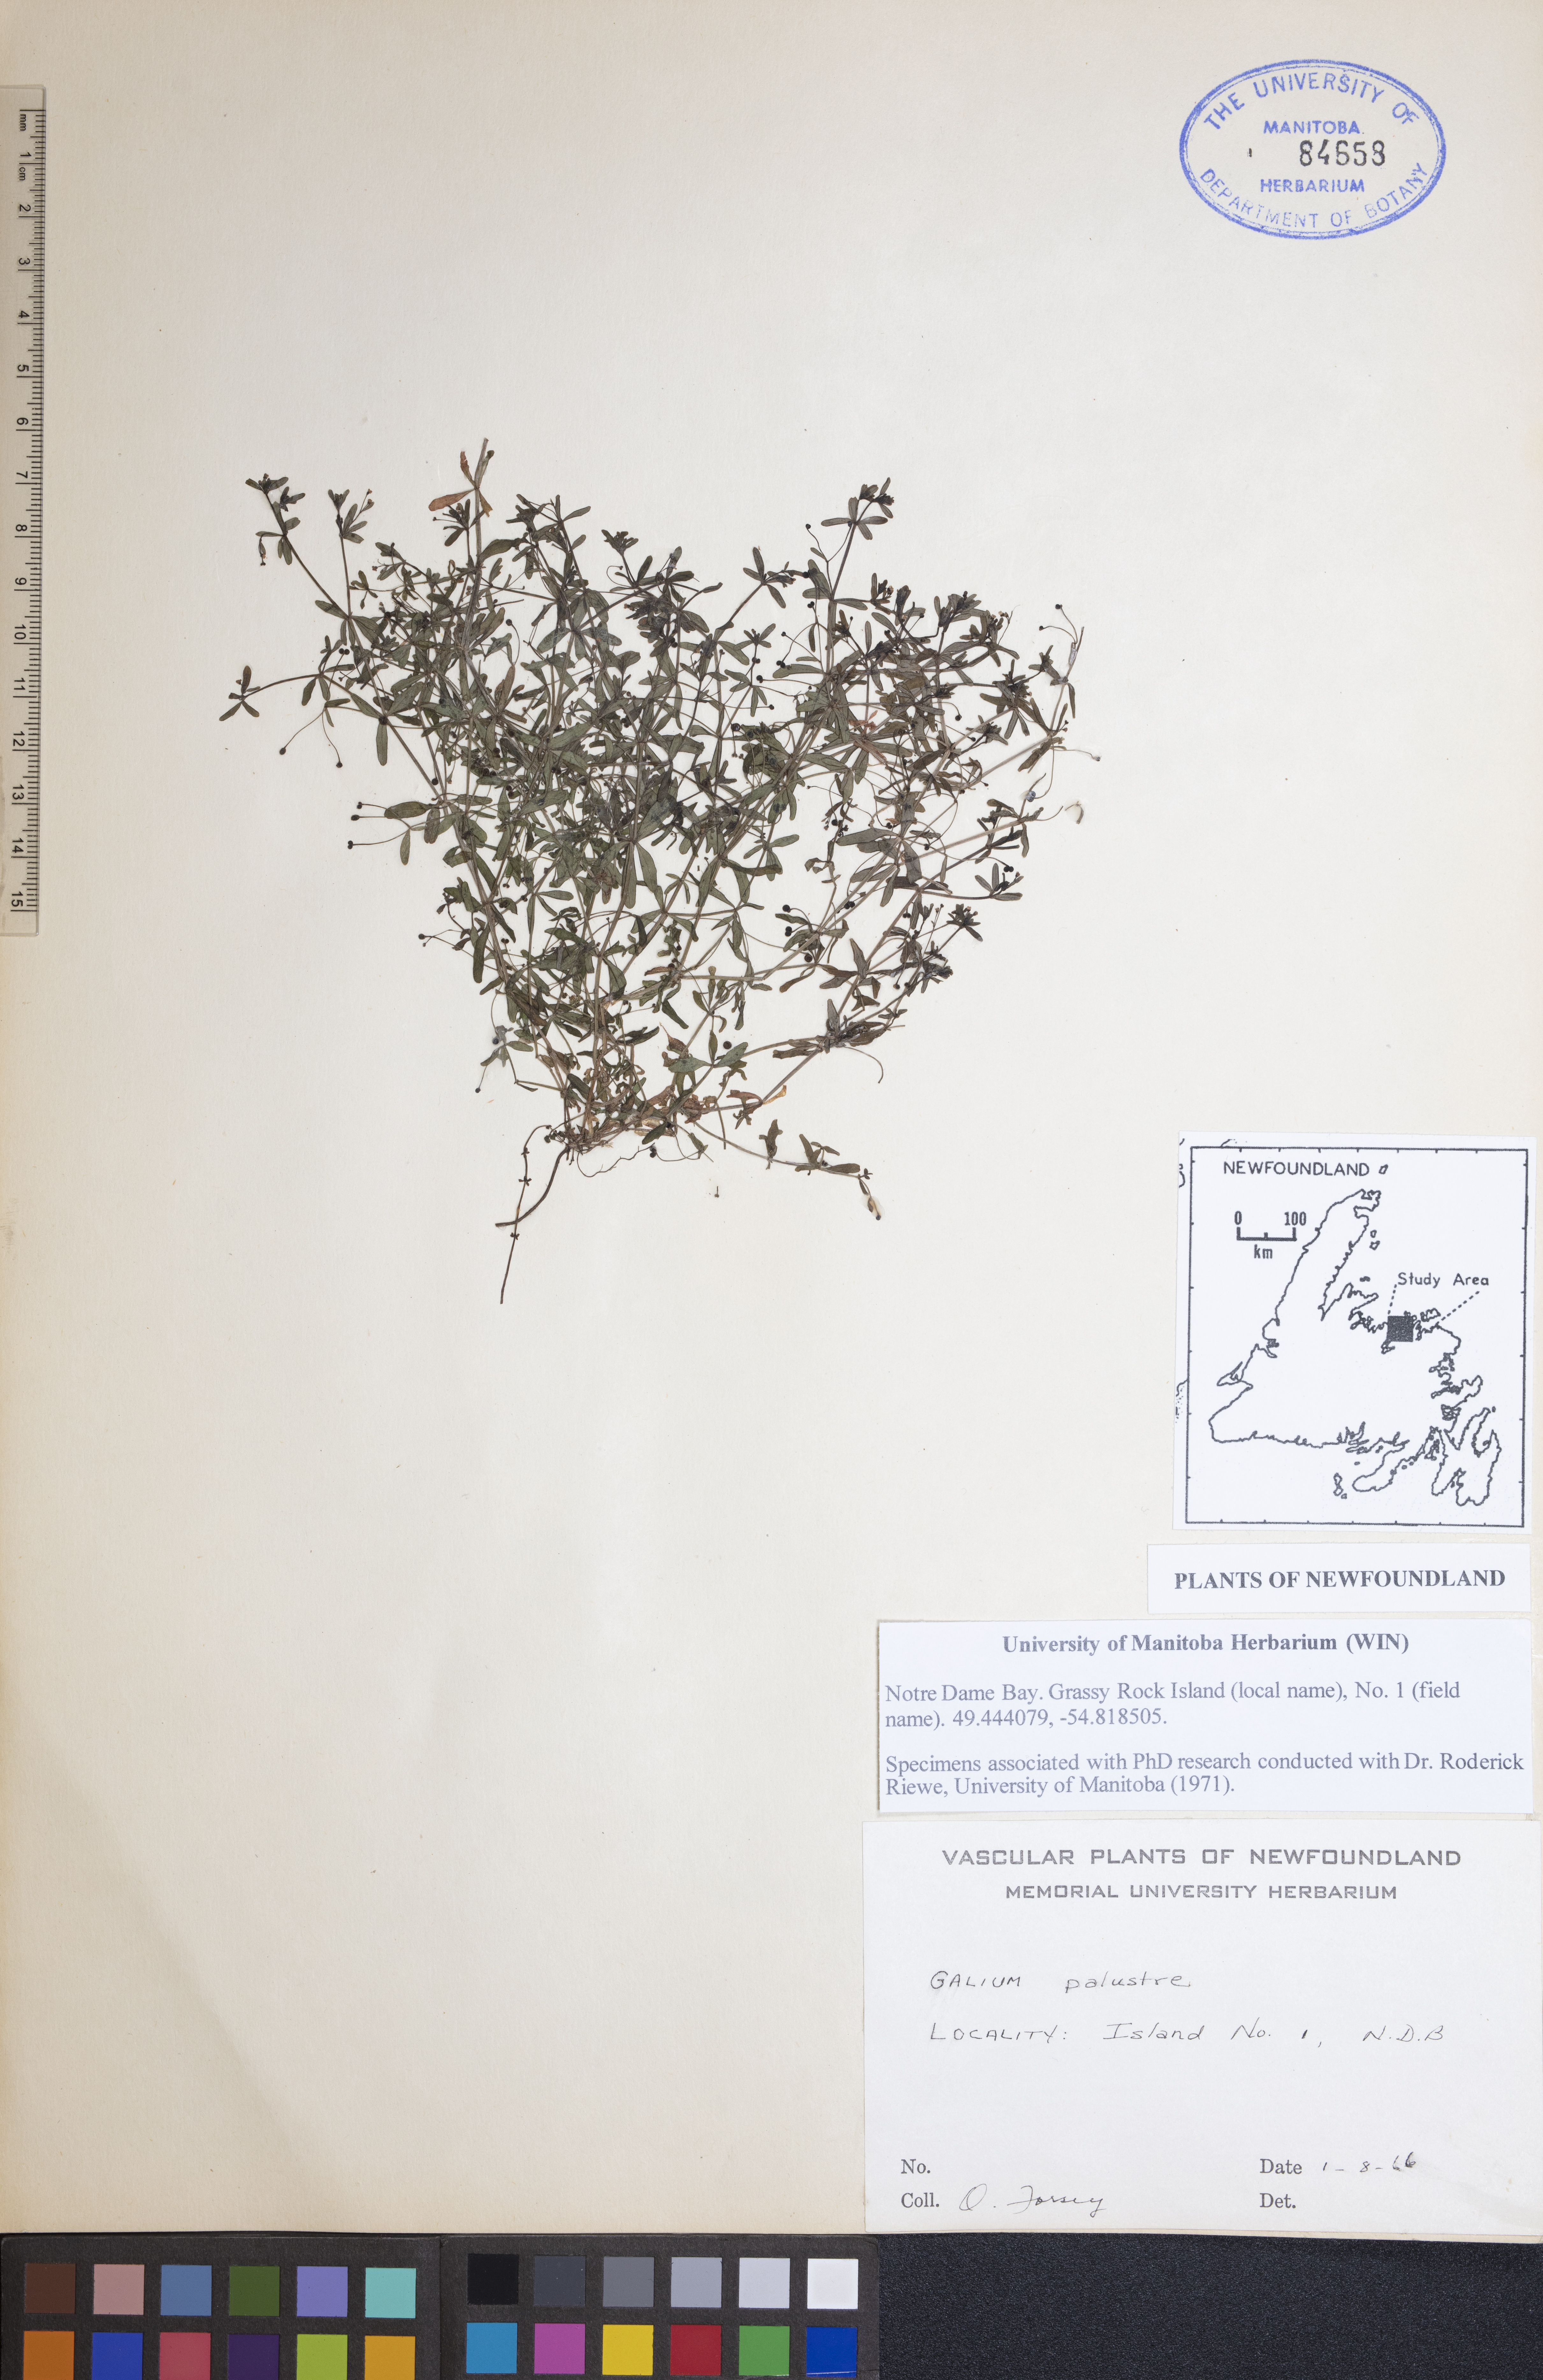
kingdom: Plantae
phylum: Tracheophyta
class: Magnoliopsida
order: Gentianales
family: Rubiaceae
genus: Galium
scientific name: Galium palustre
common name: Common marsh-bedstraw
